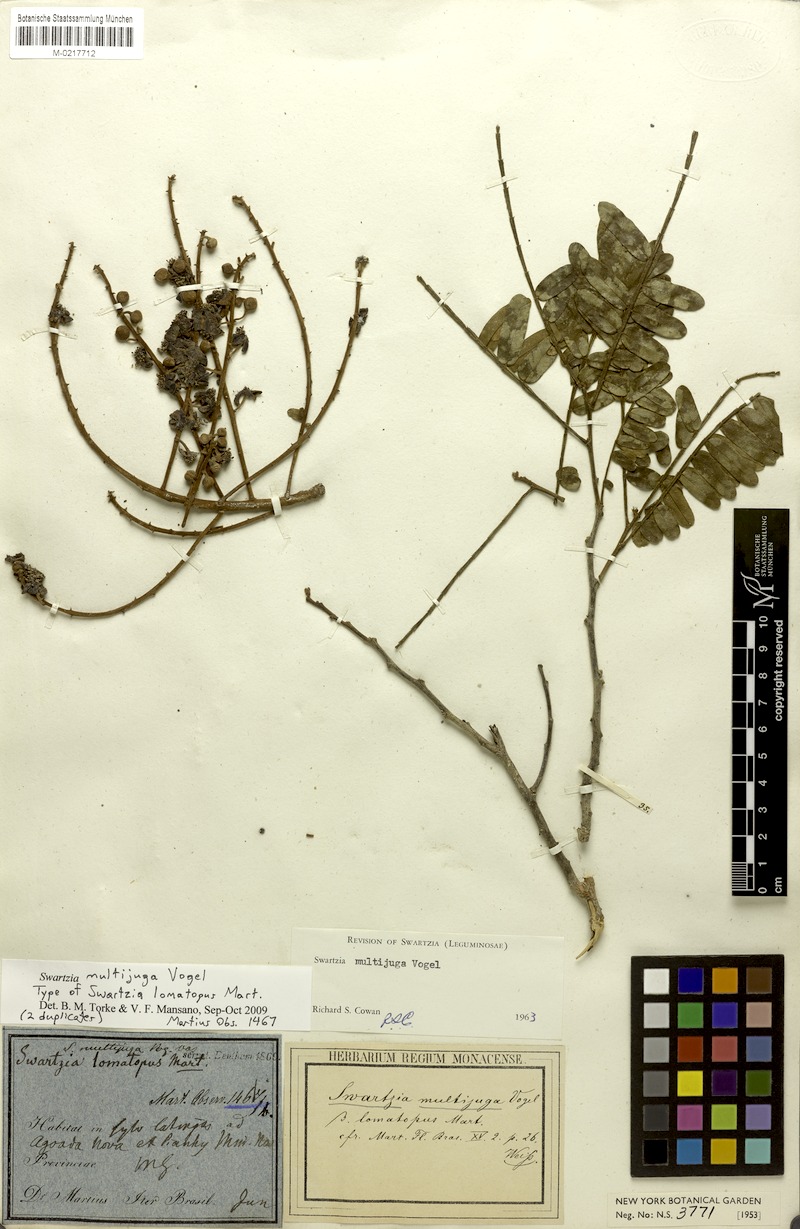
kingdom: Plantae
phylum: Tracheophyta
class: Magnoliopsida
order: Fabales
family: Fabaceae
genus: Swartzia
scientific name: Swartzia multijuga
